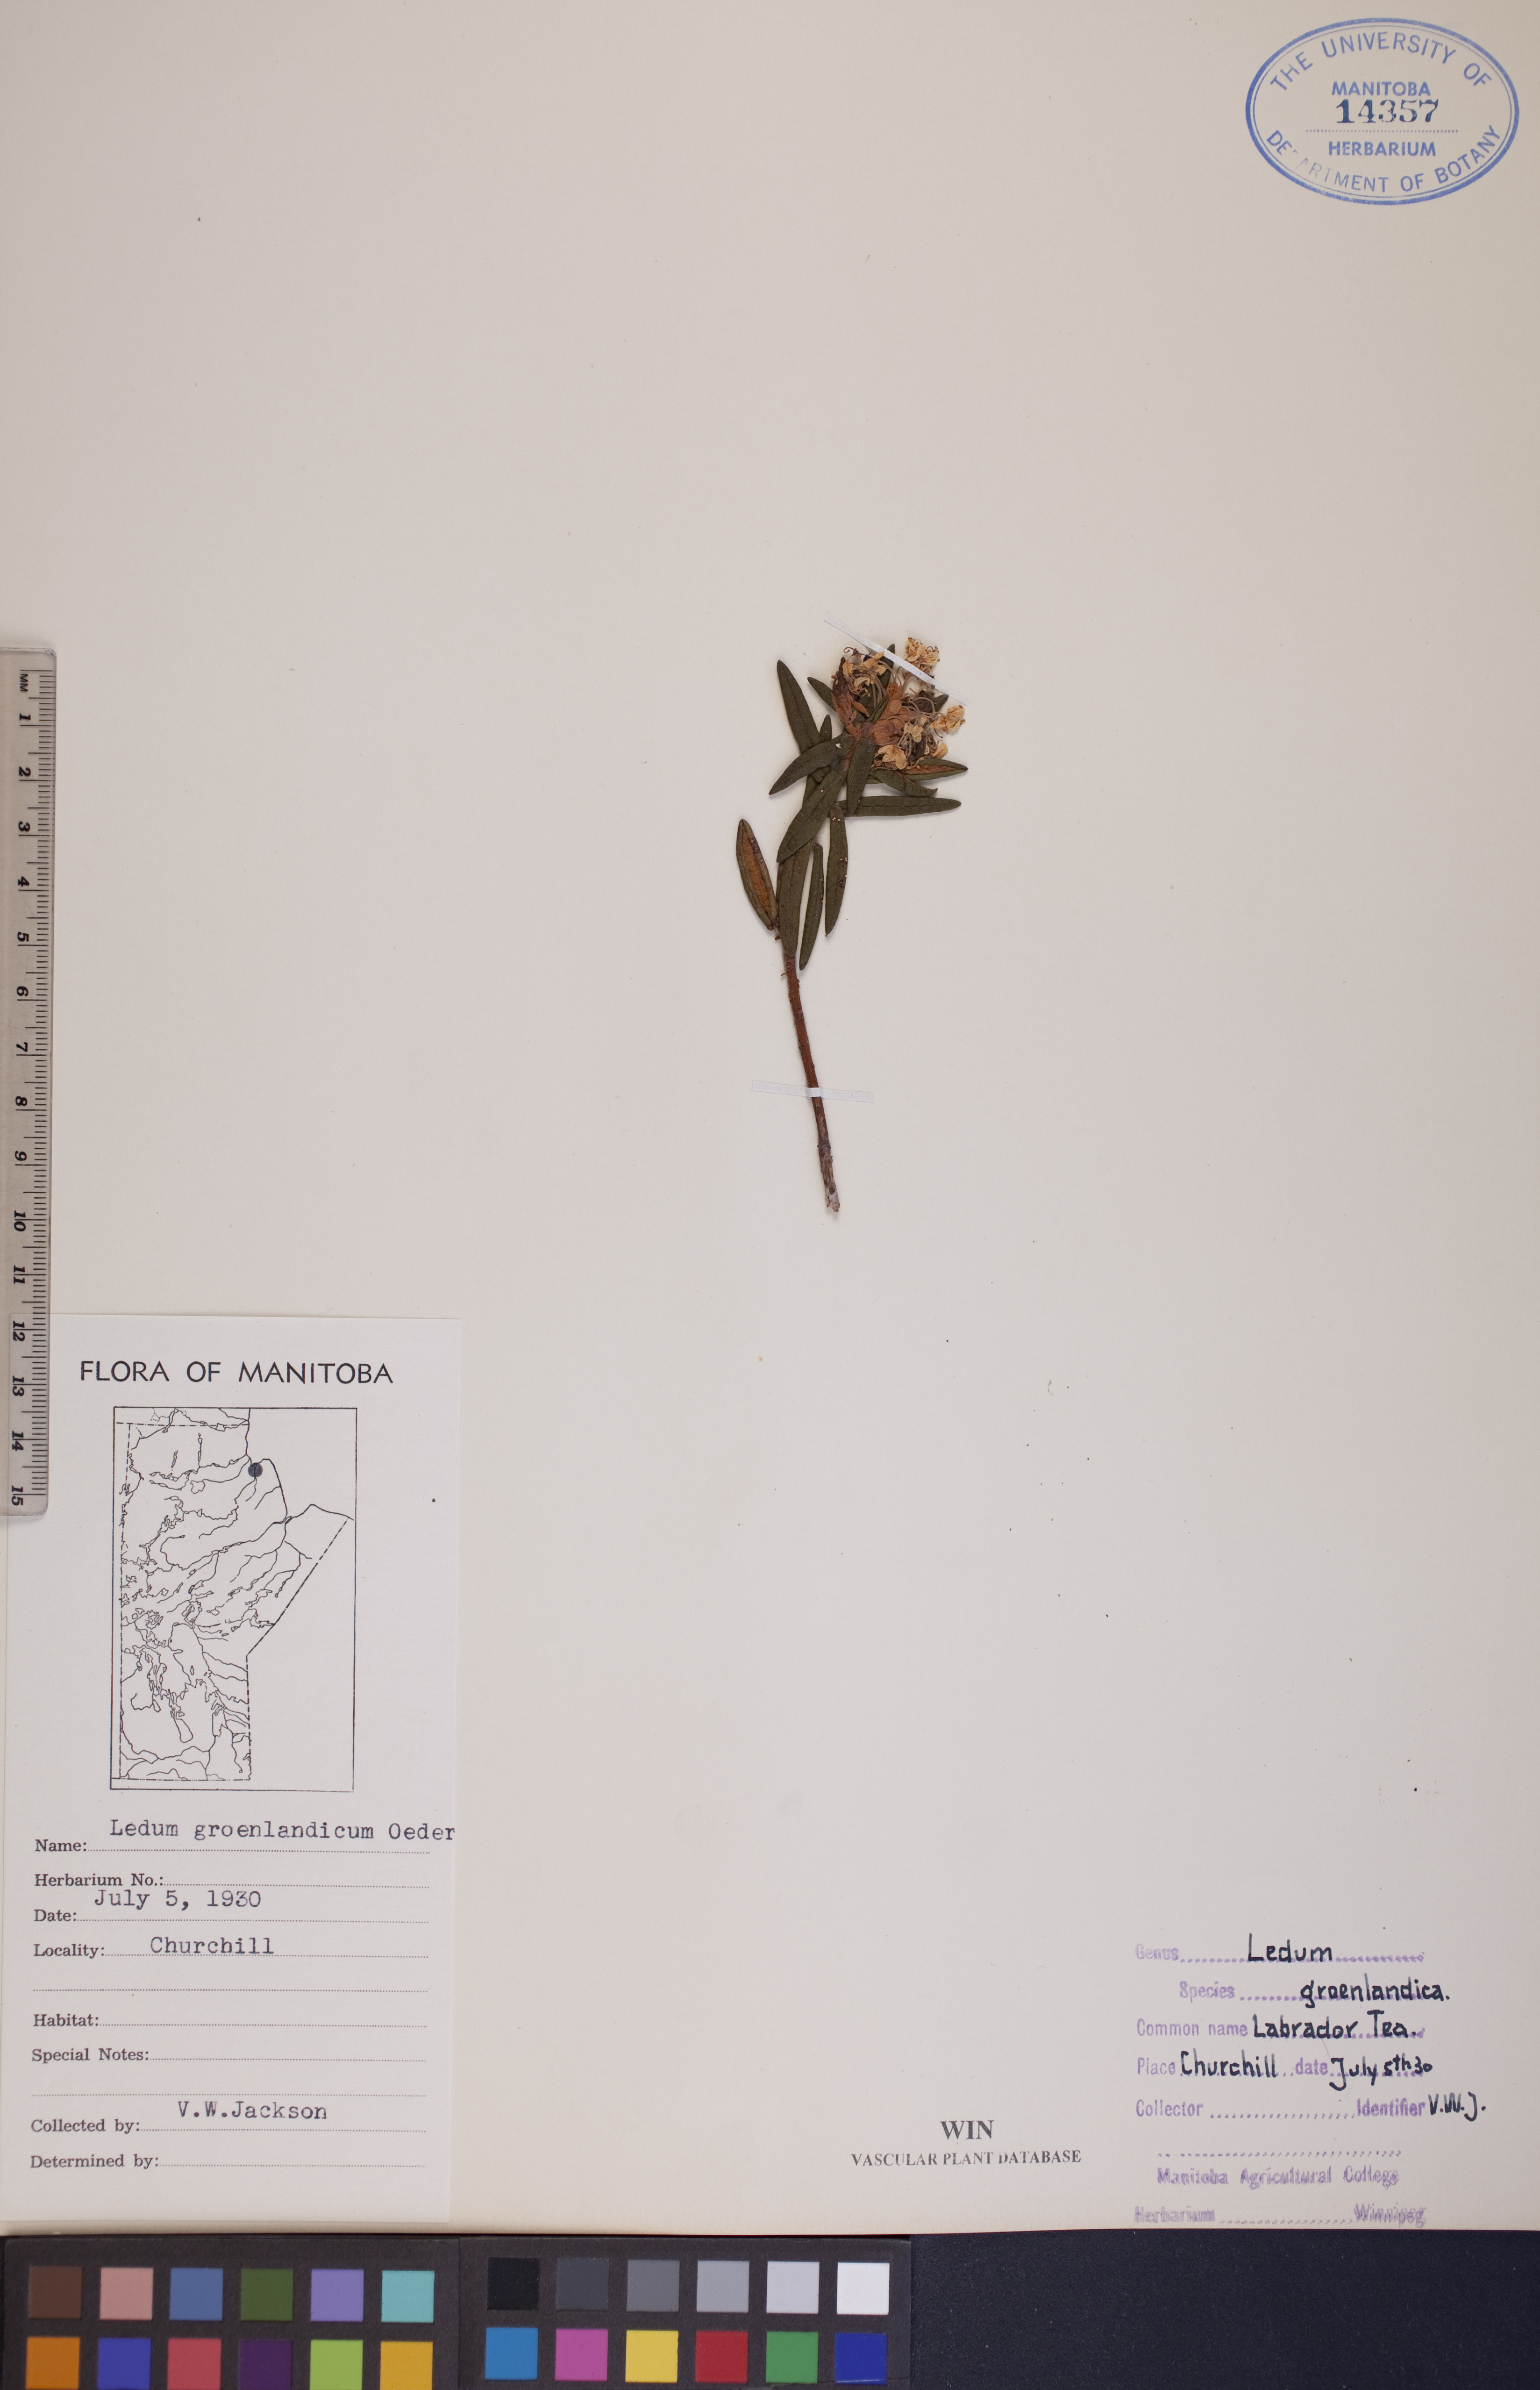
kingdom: Plantae
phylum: Tracheophyta
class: Magnoliopsida
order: Ericales
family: Ericaceae
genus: Rhododendron
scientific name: Rhododendron groenlandicum
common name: Bog labrador tea
